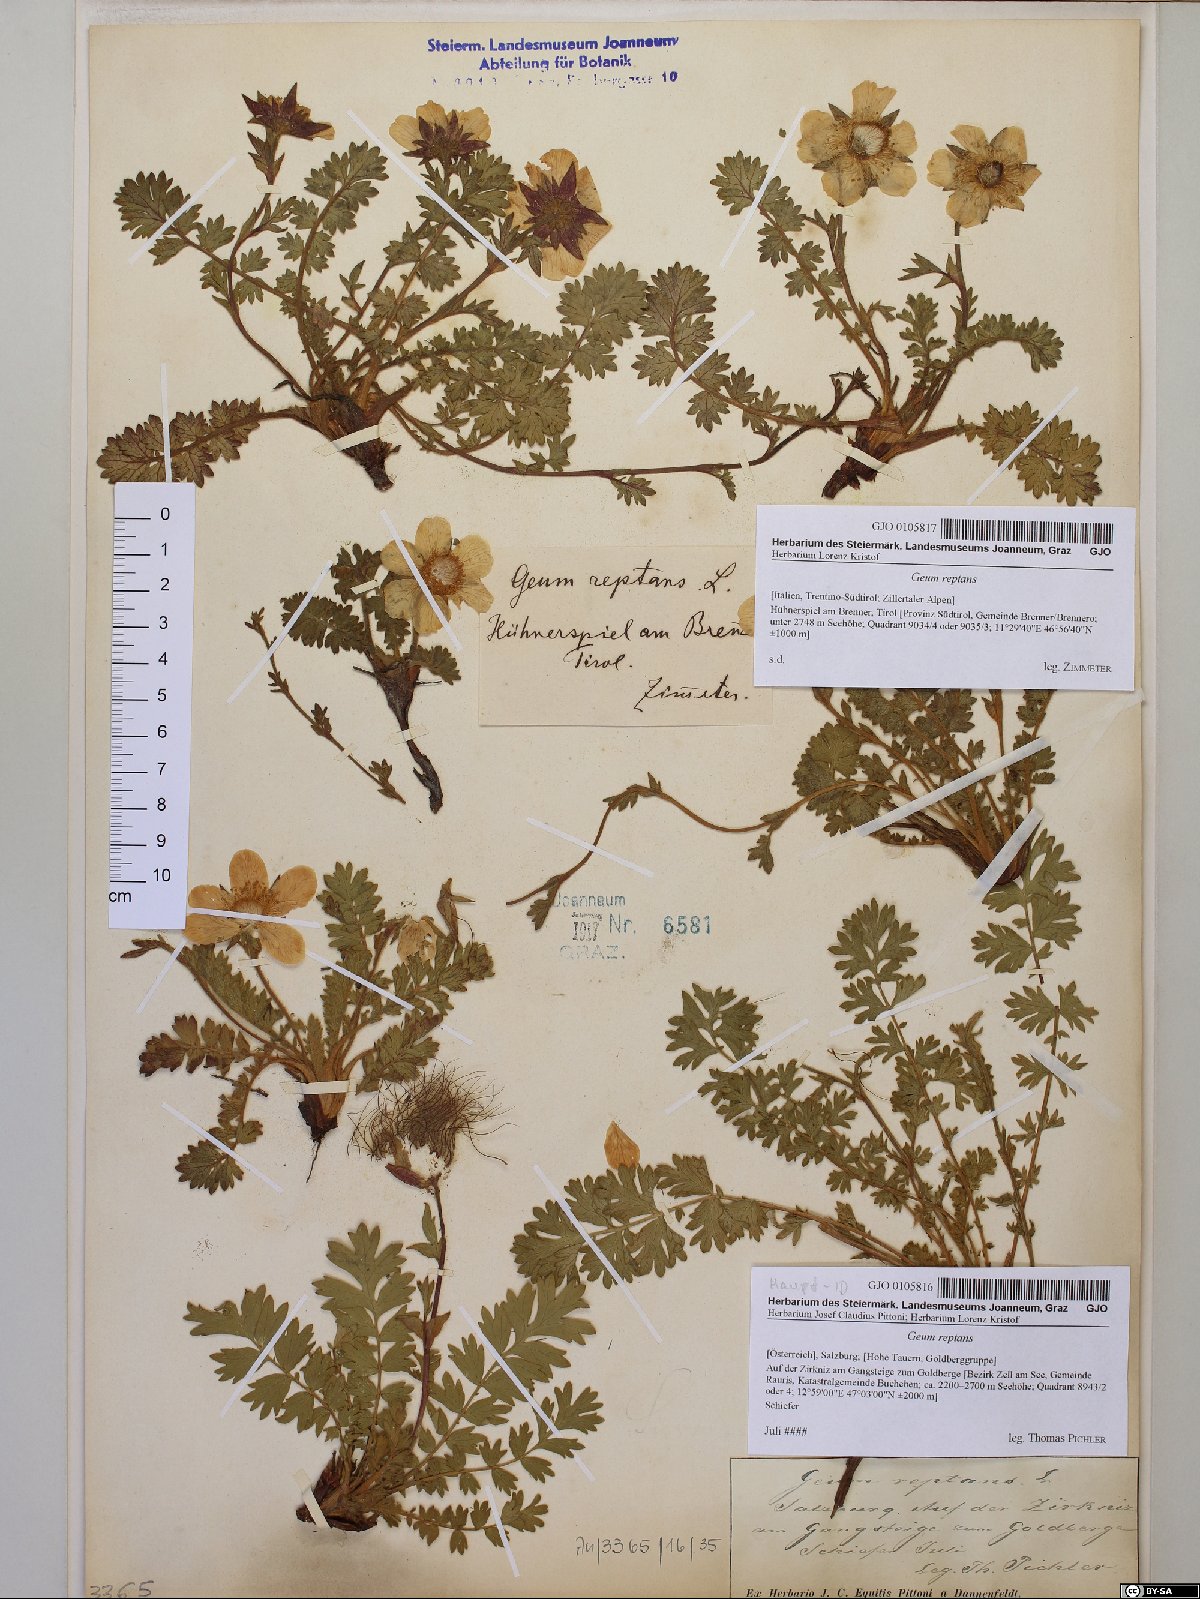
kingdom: Plantae
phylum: Tracheophyta
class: Magnoliopsida
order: Rosales
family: Rosaceae
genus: Geum
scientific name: Geum reptans
